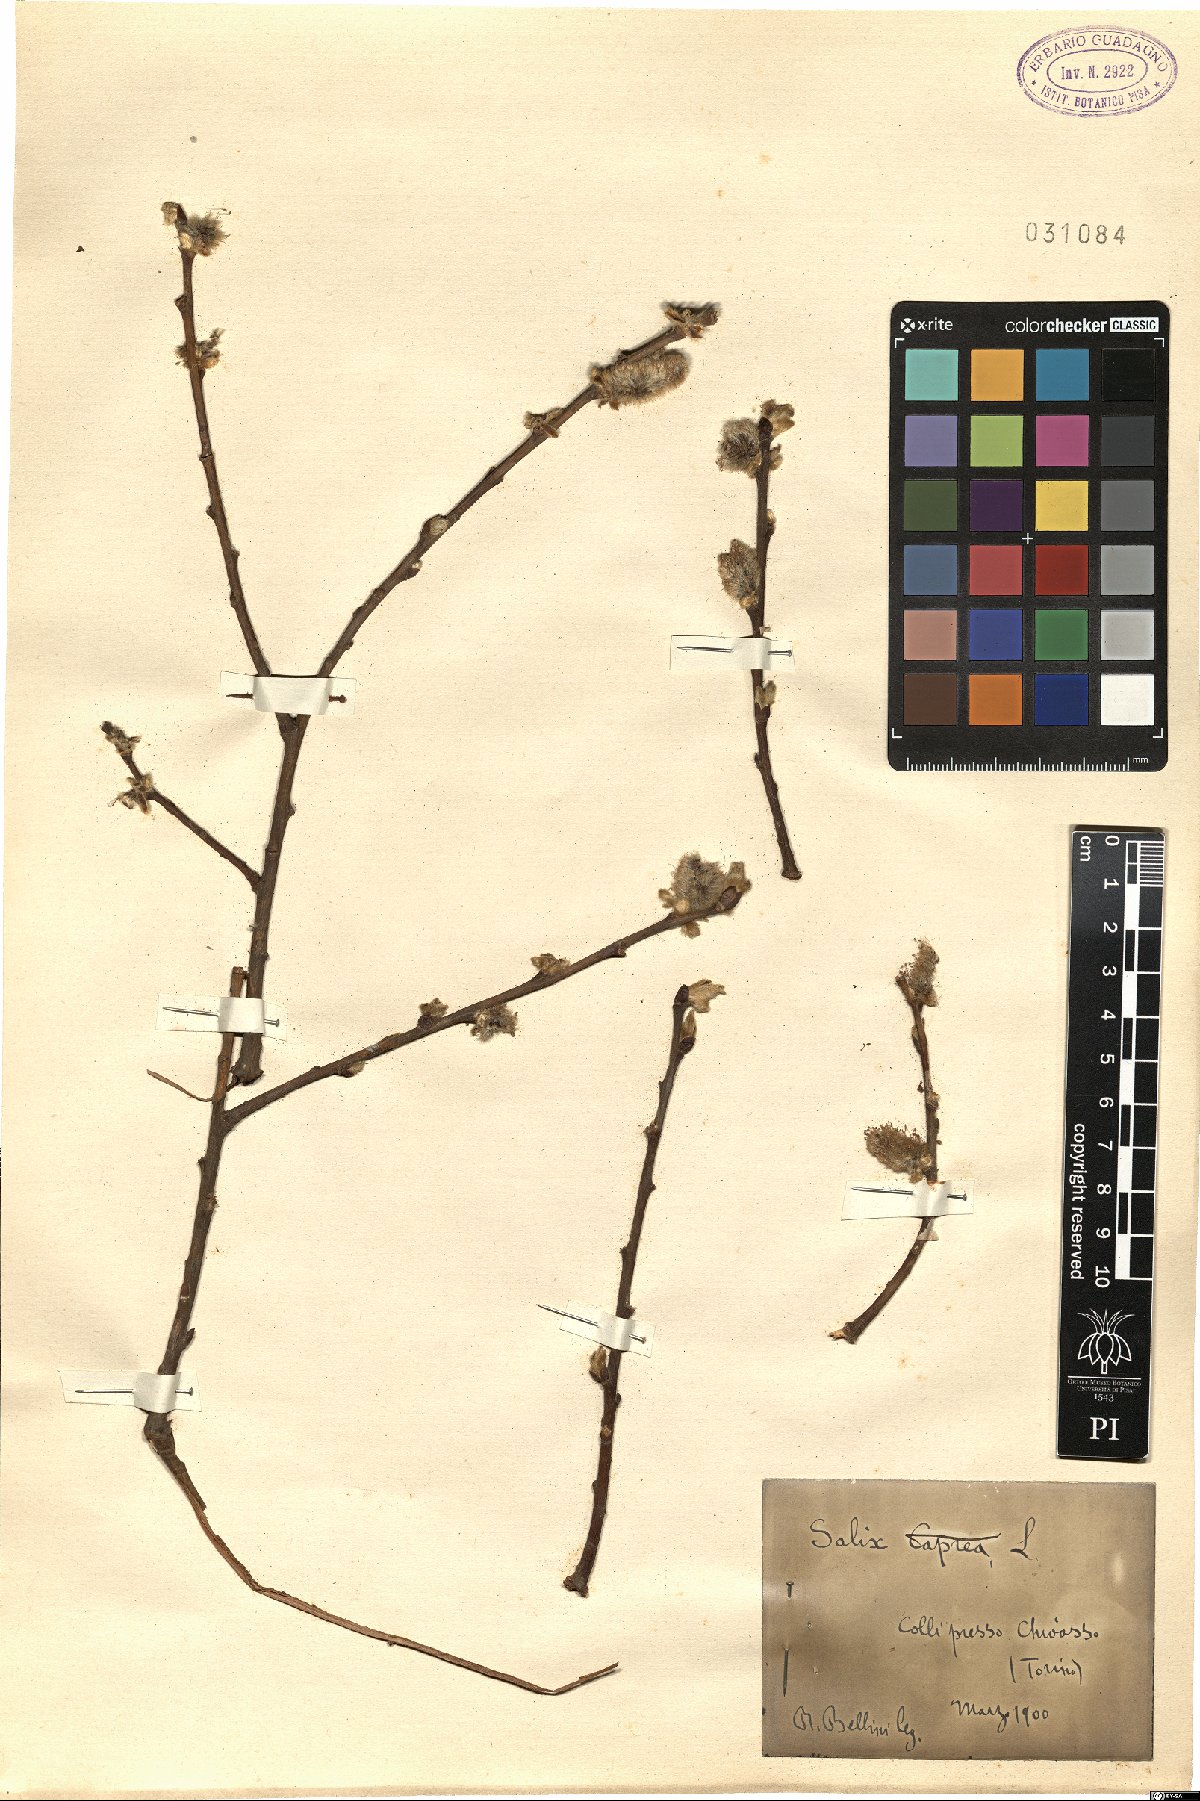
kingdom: Plantae
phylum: Tracheophyta
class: Magnoliopsida
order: Malpighiales
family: Salicaceae
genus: Salix
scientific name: Salix caprea
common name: Goat willow
